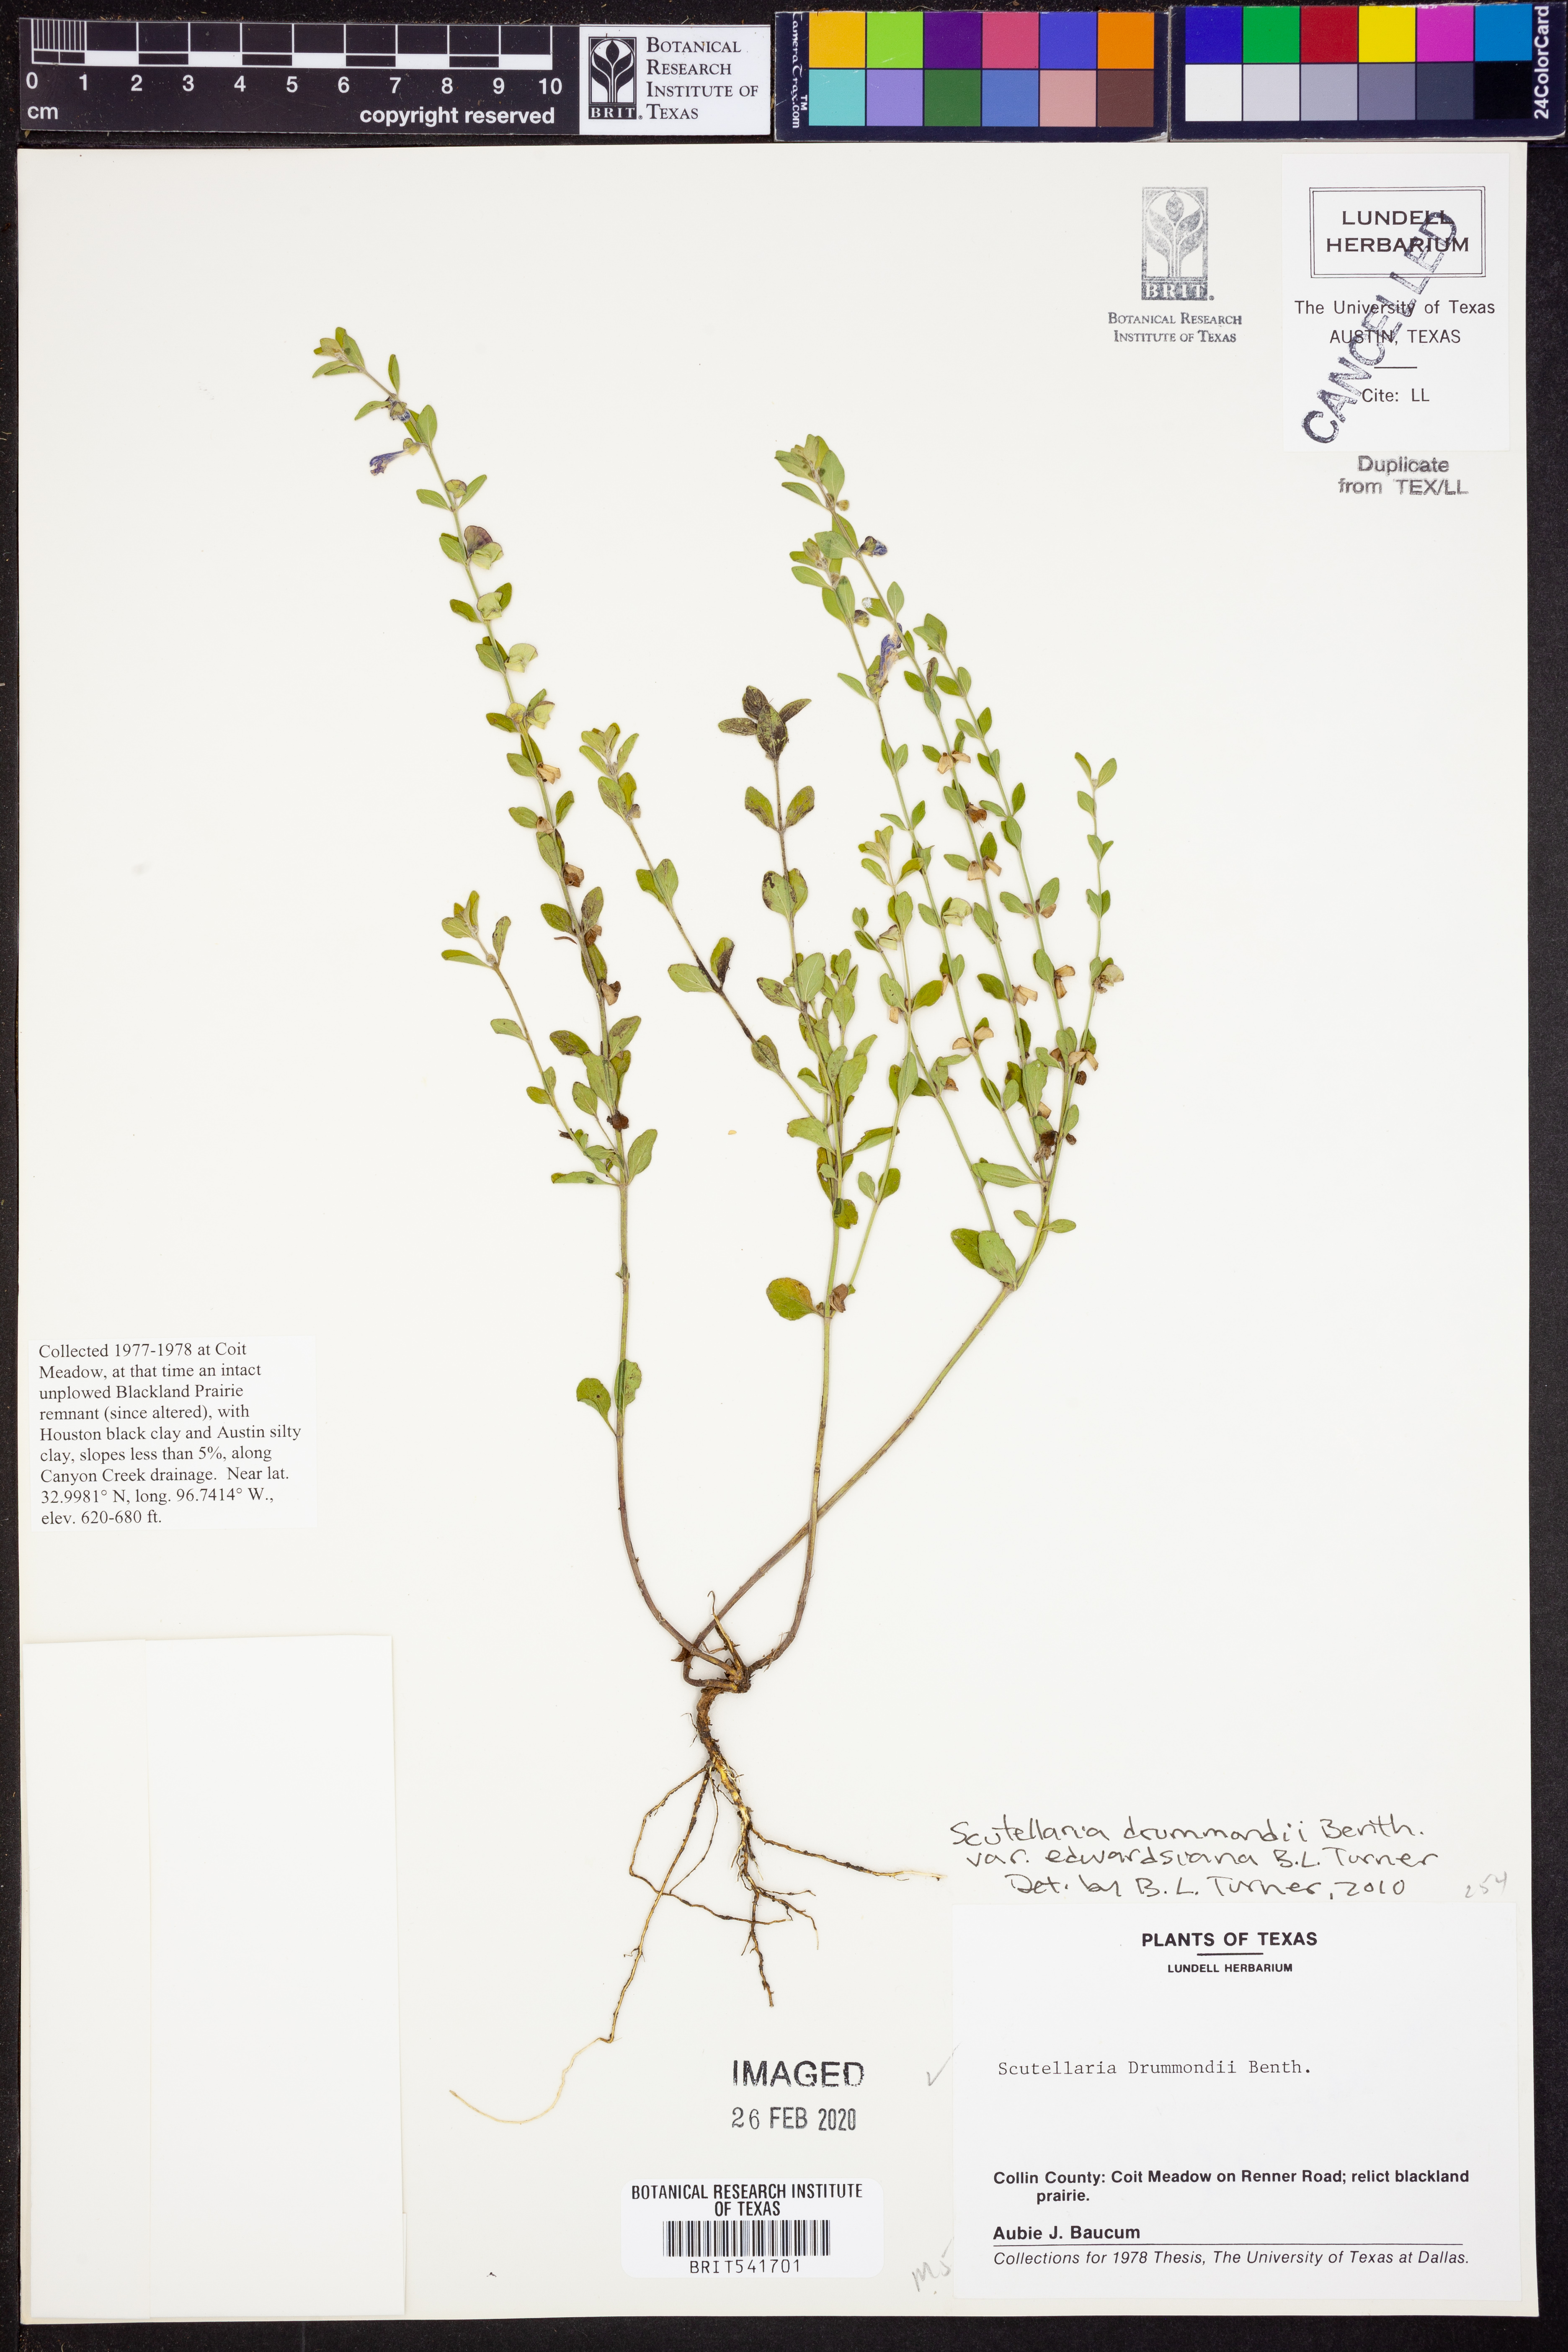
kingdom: Plantae
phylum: Tracheophyta
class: Magnoliopsida
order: Lamiales
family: Lamiaceae
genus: Scutellaria
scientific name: Scutellaria drummondii
